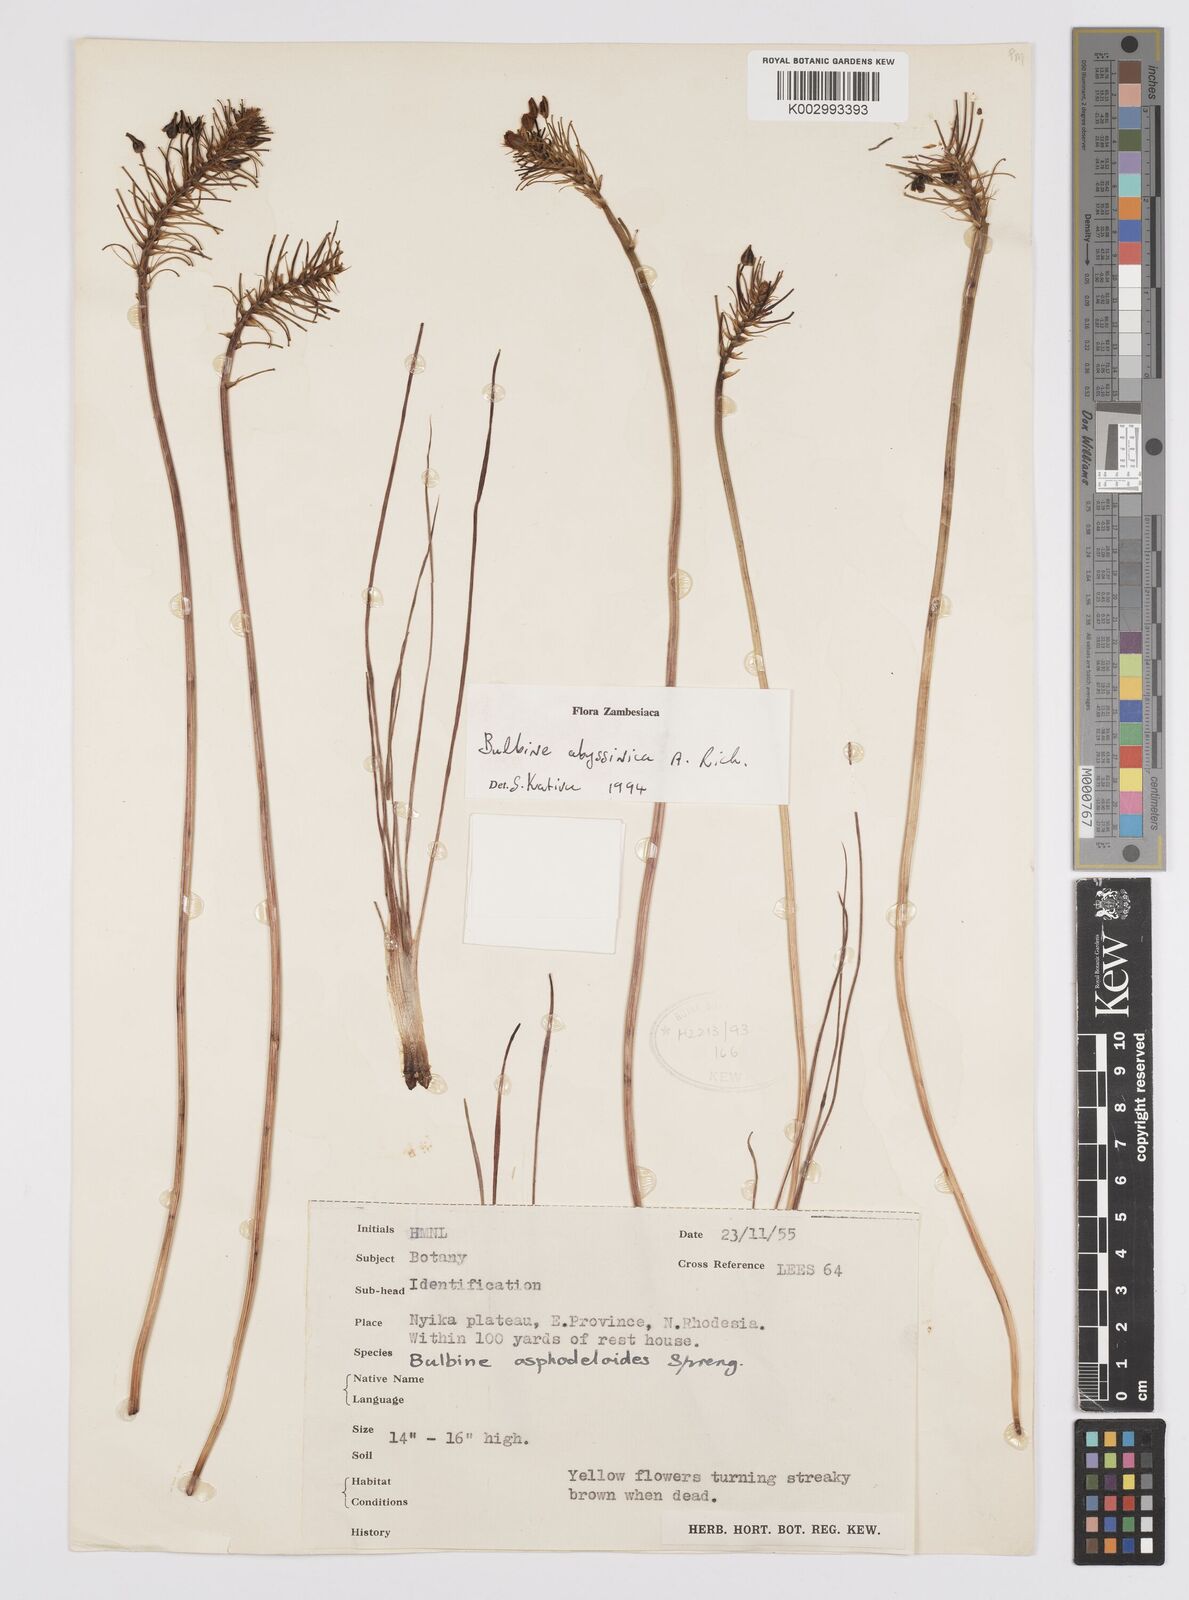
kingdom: Plantae
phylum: Tracheophyta
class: Liliopsida
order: Asparagales
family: Asphodelaceae
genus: Bulbine
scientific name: Bulbine abyssinica
